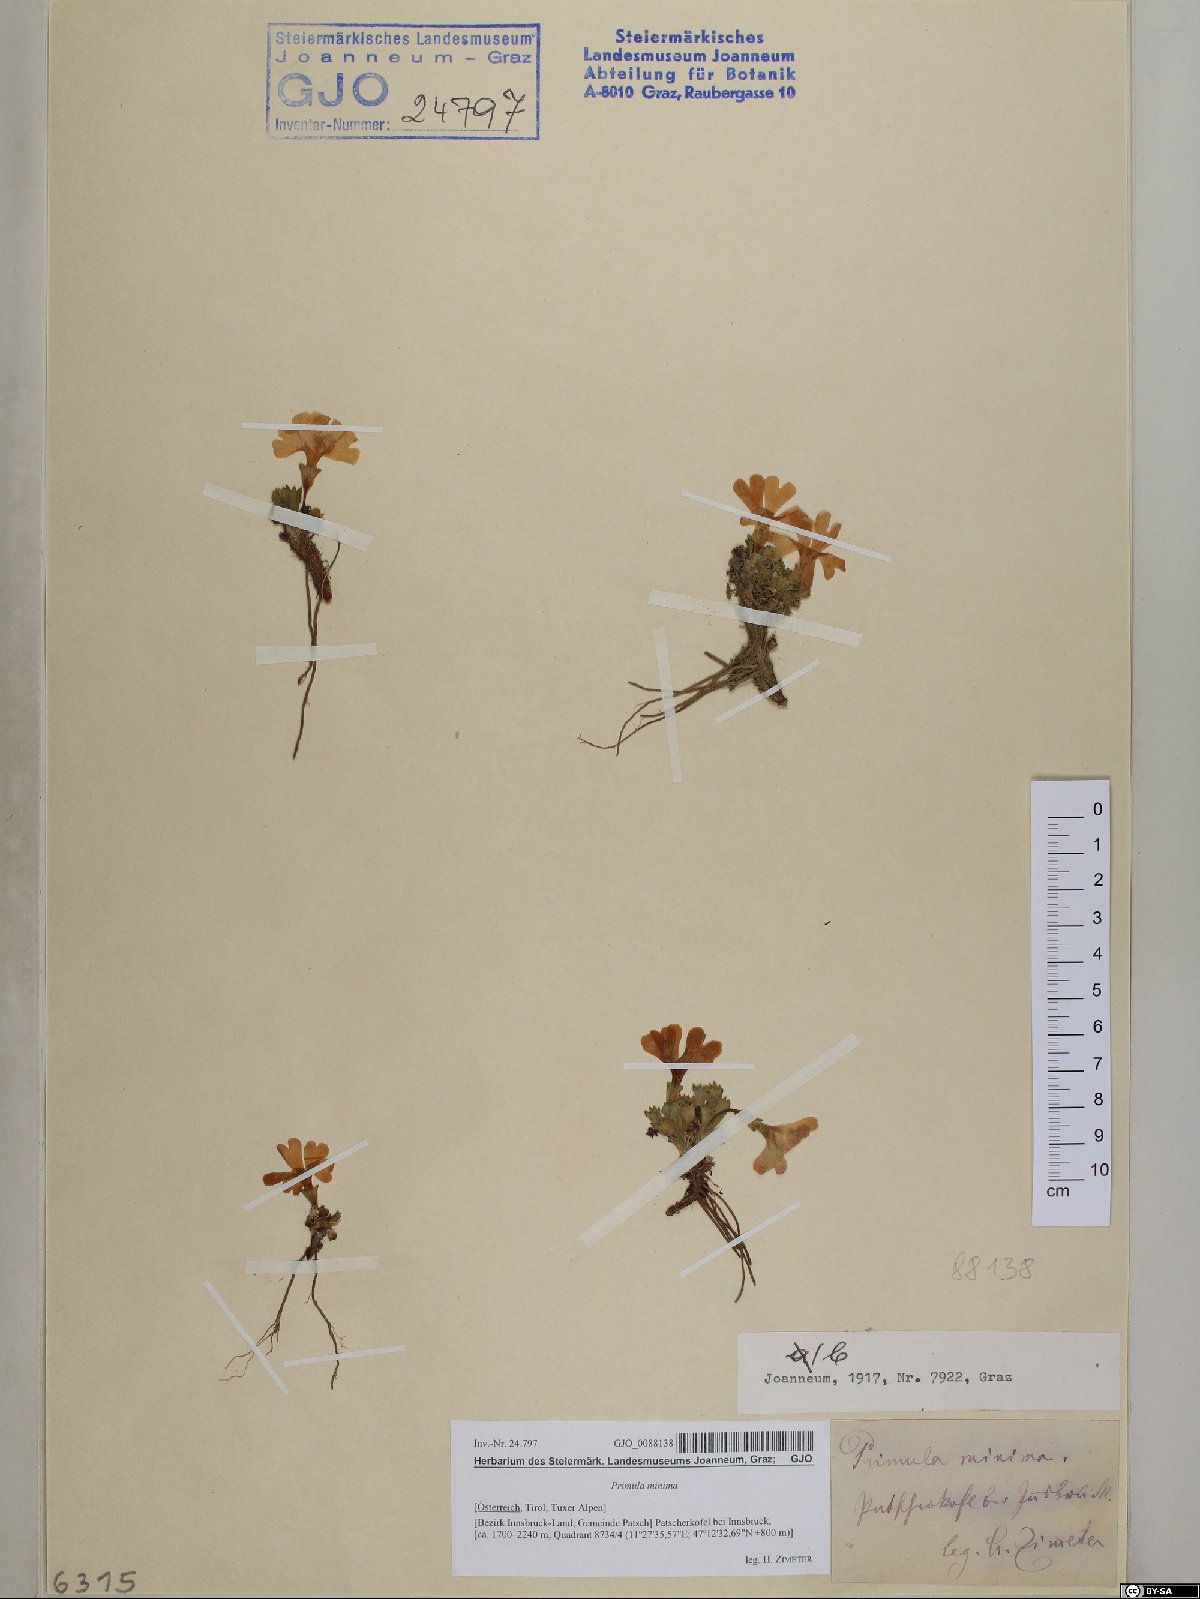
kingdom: Plantae
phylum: Tracheophyta
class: Magnoliopsida
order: Ericales
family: Primulaceae
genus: Primula
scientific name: Primula minima
